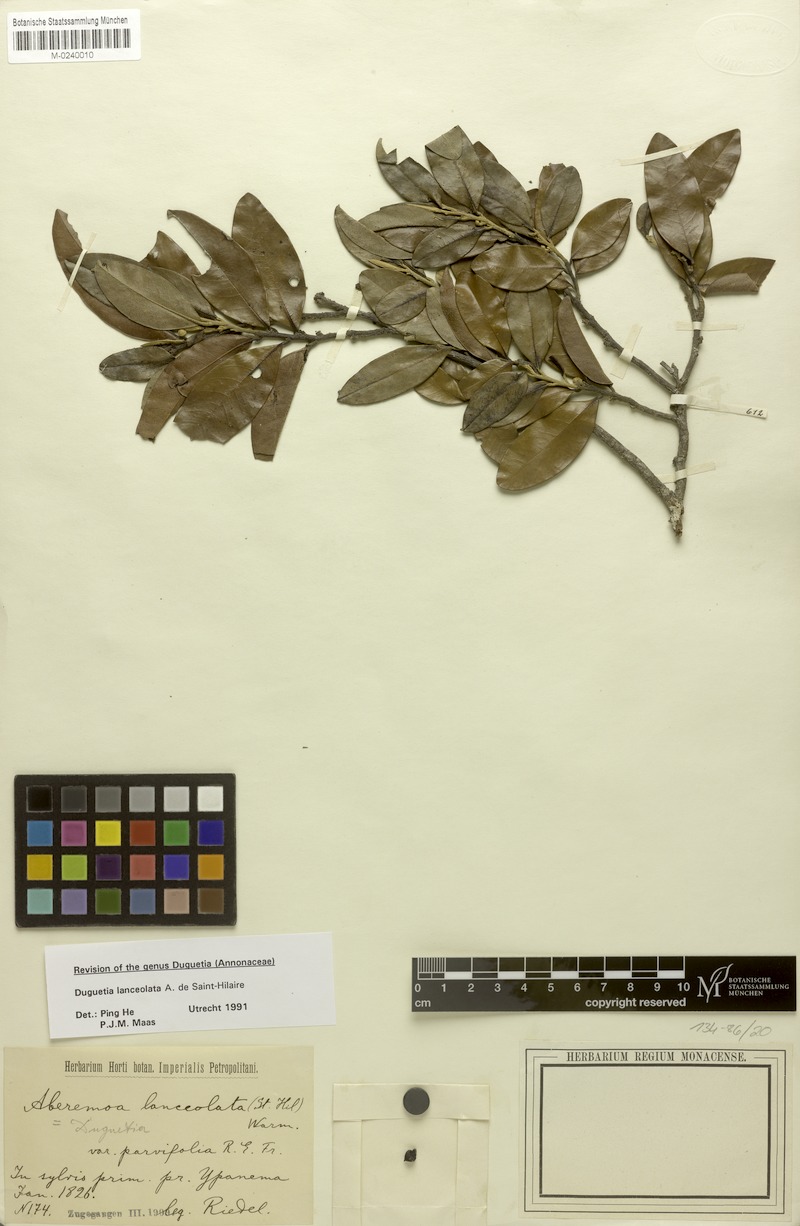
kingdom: Plantae
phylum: Tracheophyta
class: Magnoliopsida
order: Magnoliales
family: Annonaceae
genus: Duguetia
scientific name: Duguetia lanceolata
